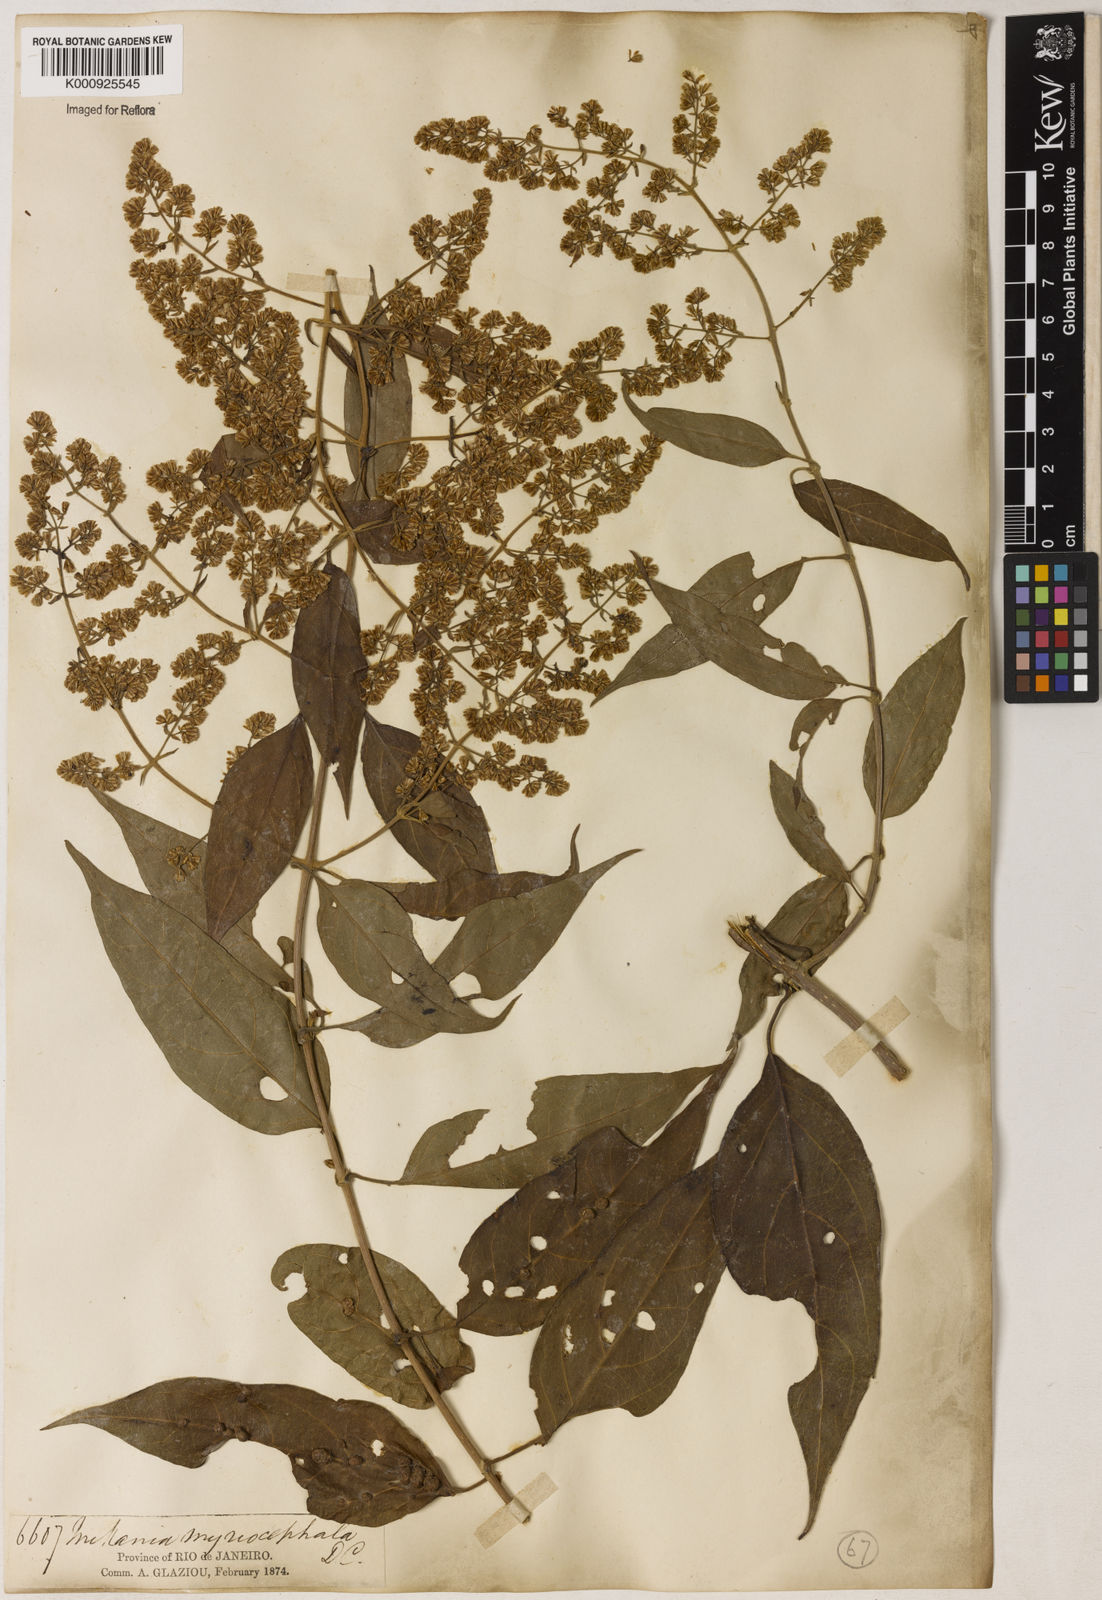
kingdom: Plantae
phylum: Tracheophyta
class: Magnoliopsida
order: Asterales
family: Asteraceae
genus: Mikania
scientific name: Mikania myriocephala
